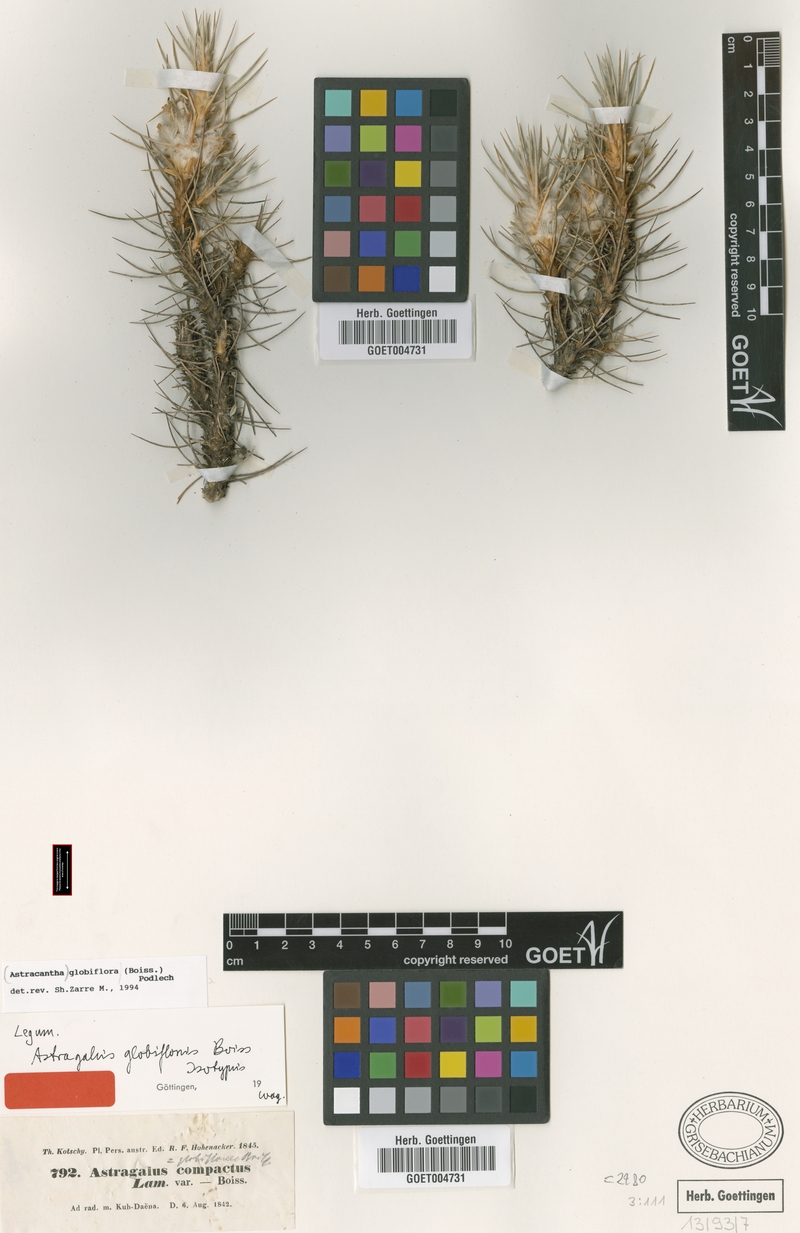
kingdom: Plantae
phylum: Tracheophyta
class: Magnoliopsida
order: Fabales
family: Fabaceae
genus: Astragalus
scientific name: Astragalus globiflorus
